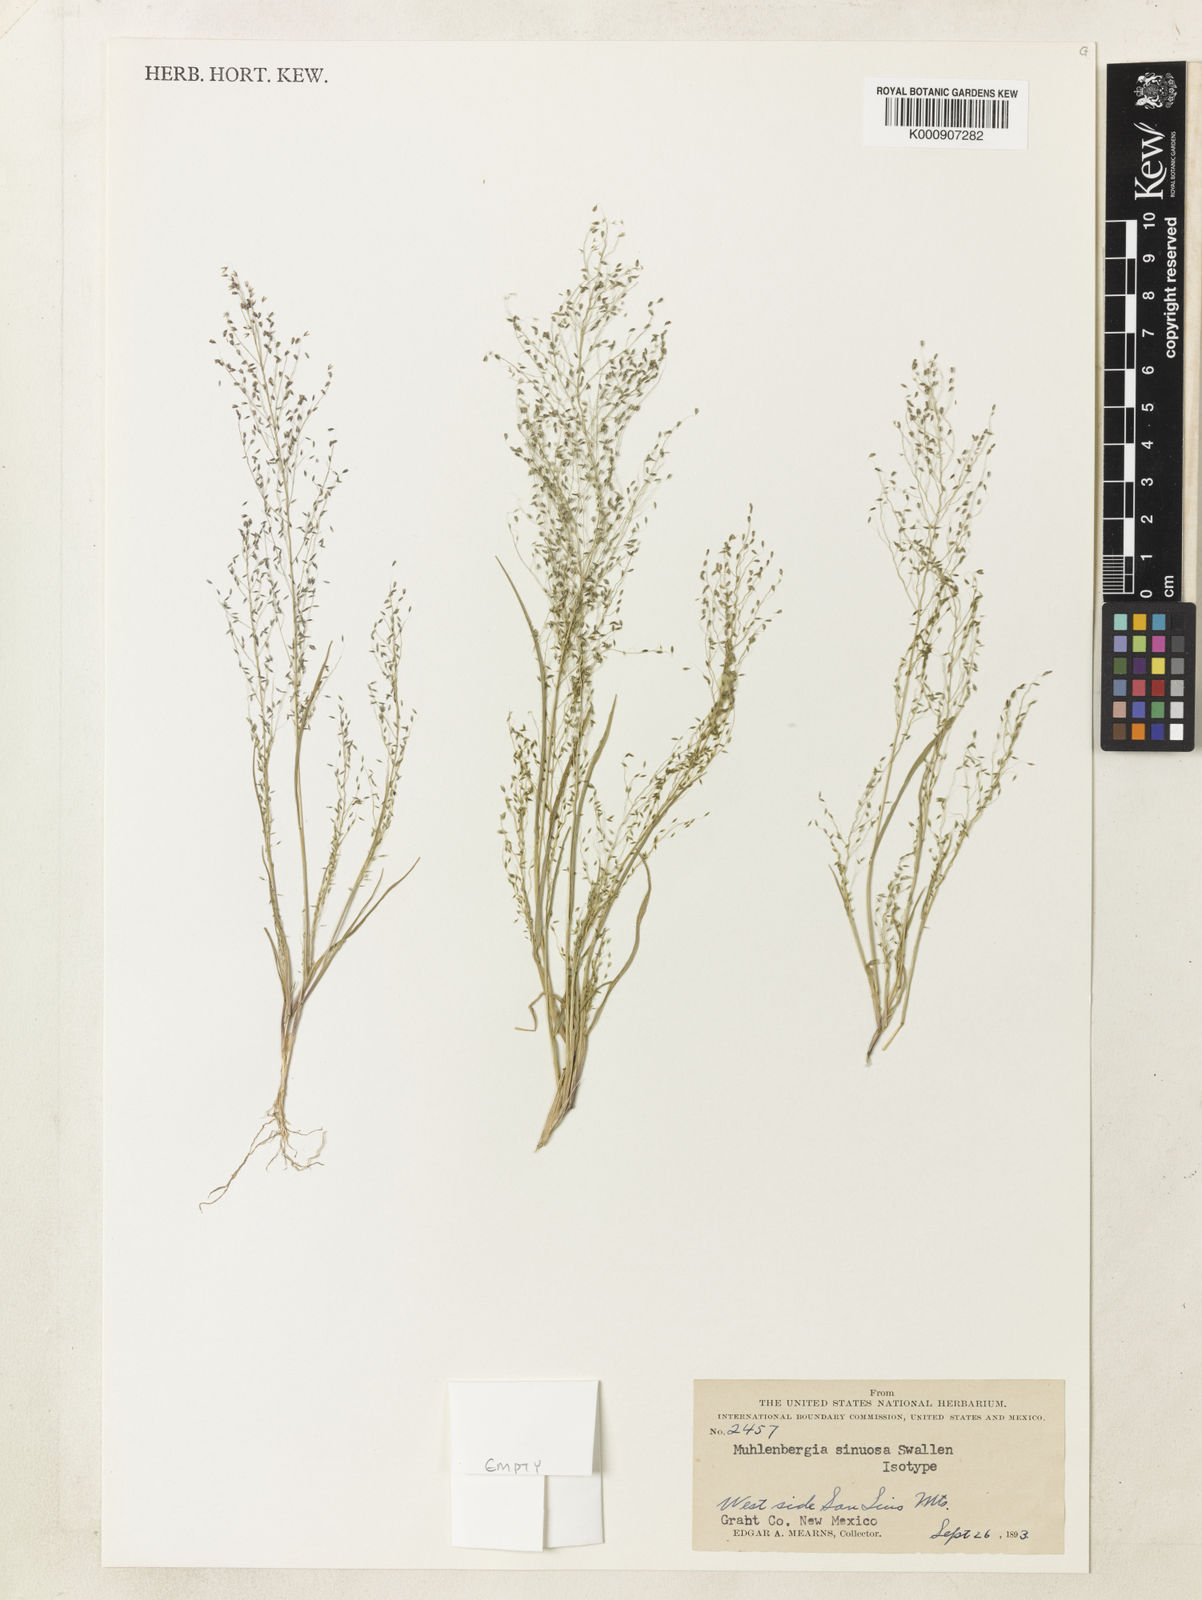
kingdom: Plantae
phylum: Tracheophyta
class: Liliopsida
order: Poales
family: Poaceae
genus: Muhlenbergia
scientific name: Muhlenbergia sinuosa
